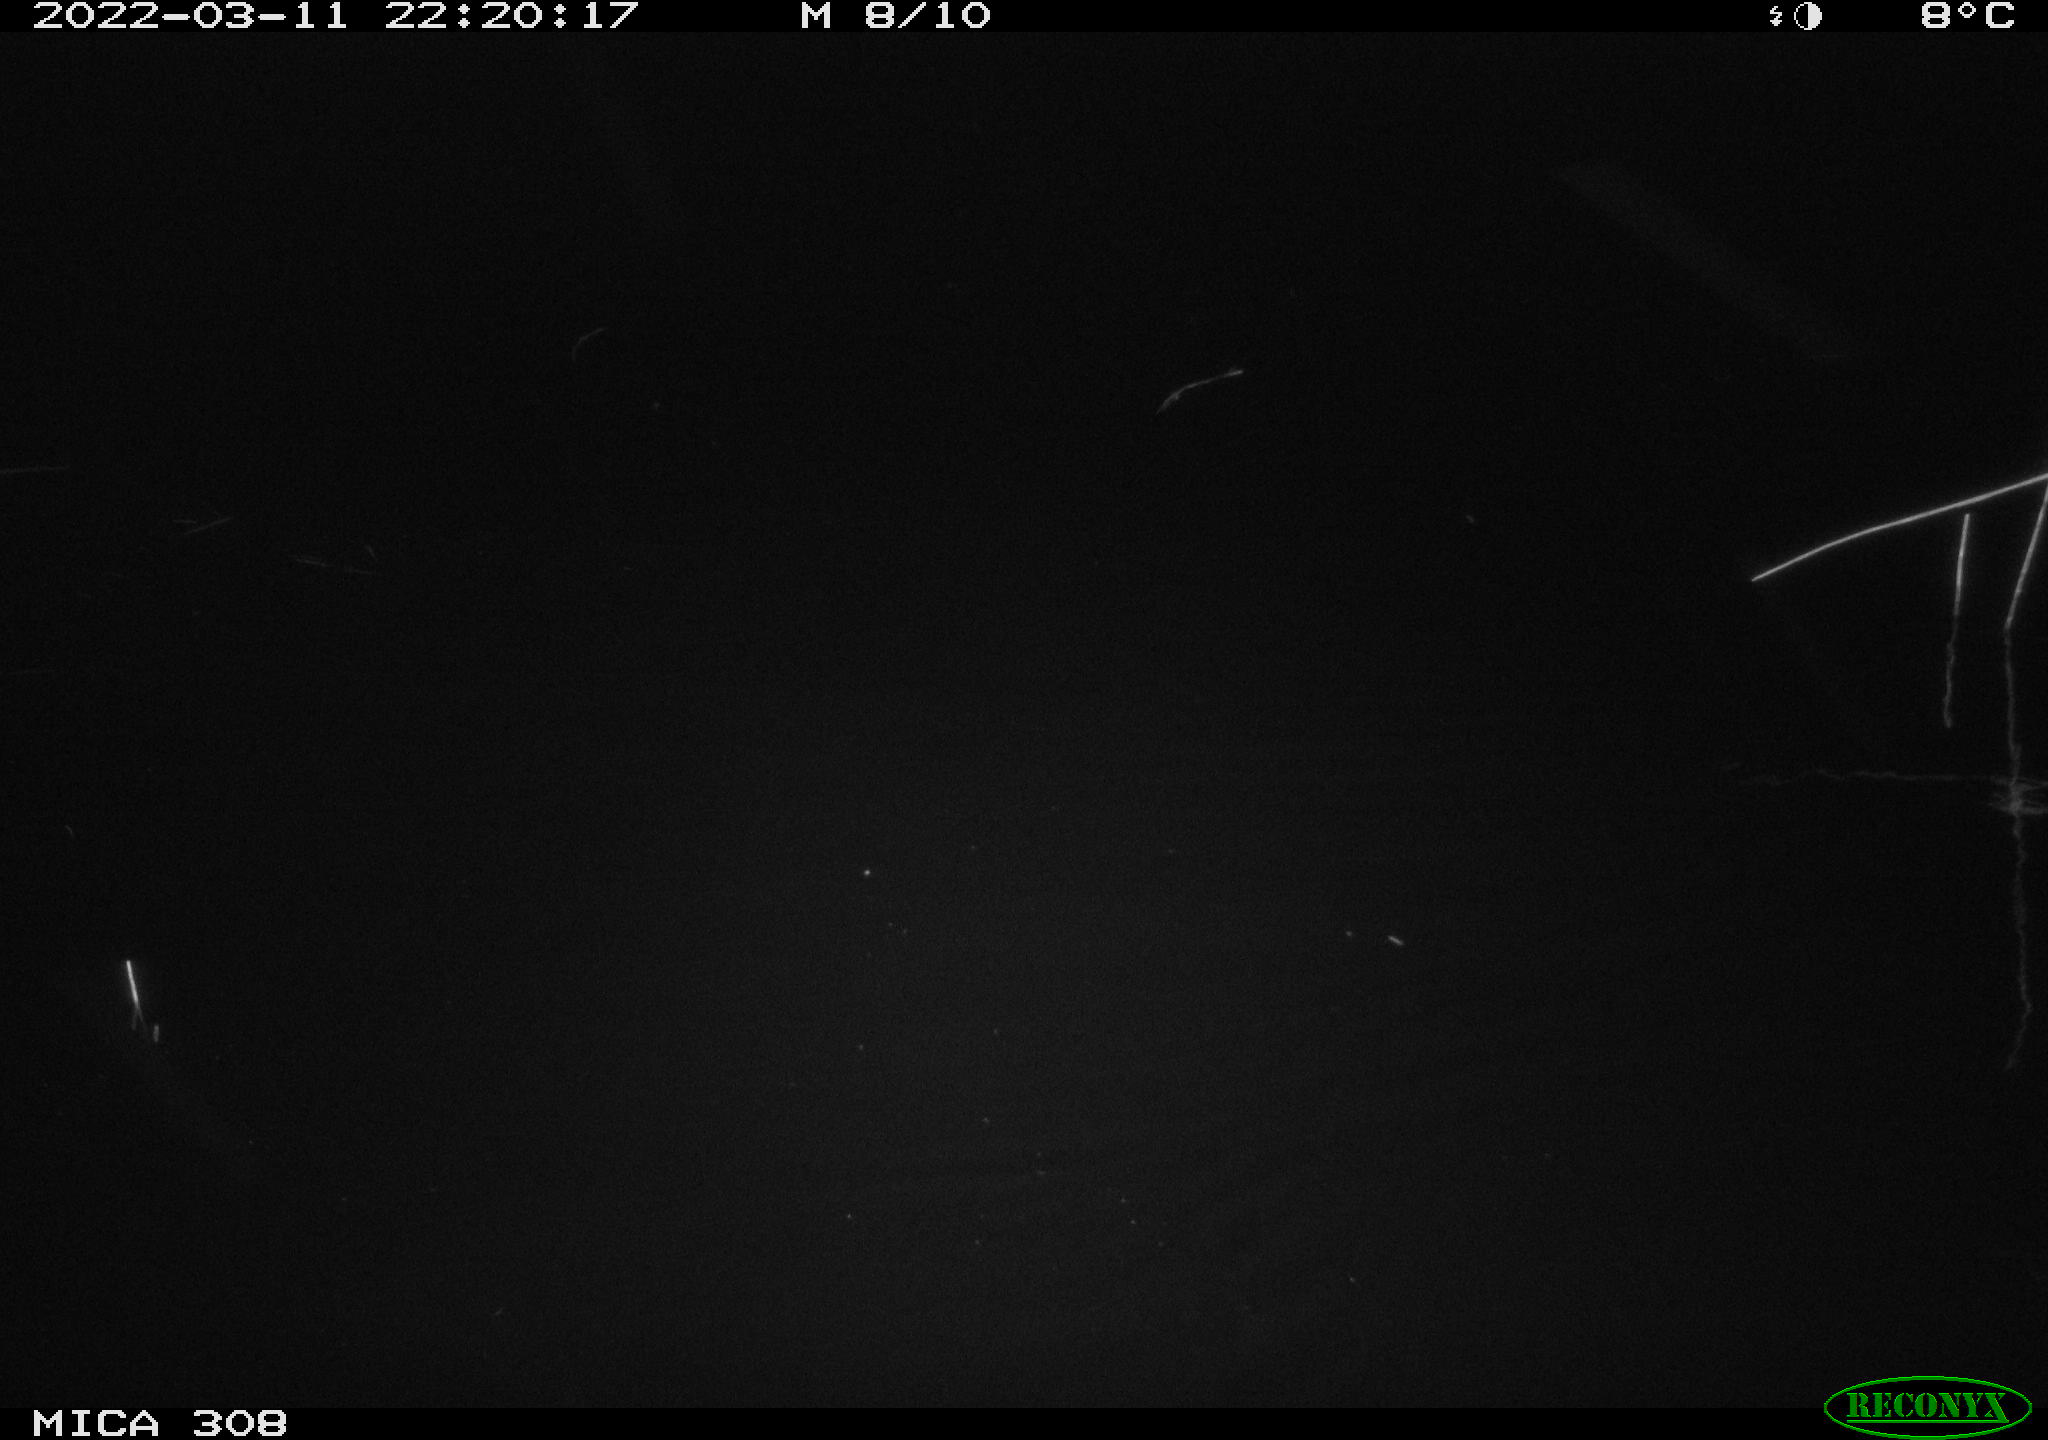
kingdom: Animalia
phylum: Chordata
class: Aves
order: Anseriformes
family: Anatidae
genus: Anas
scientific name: Anas platyrhynchos
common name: Mallard
